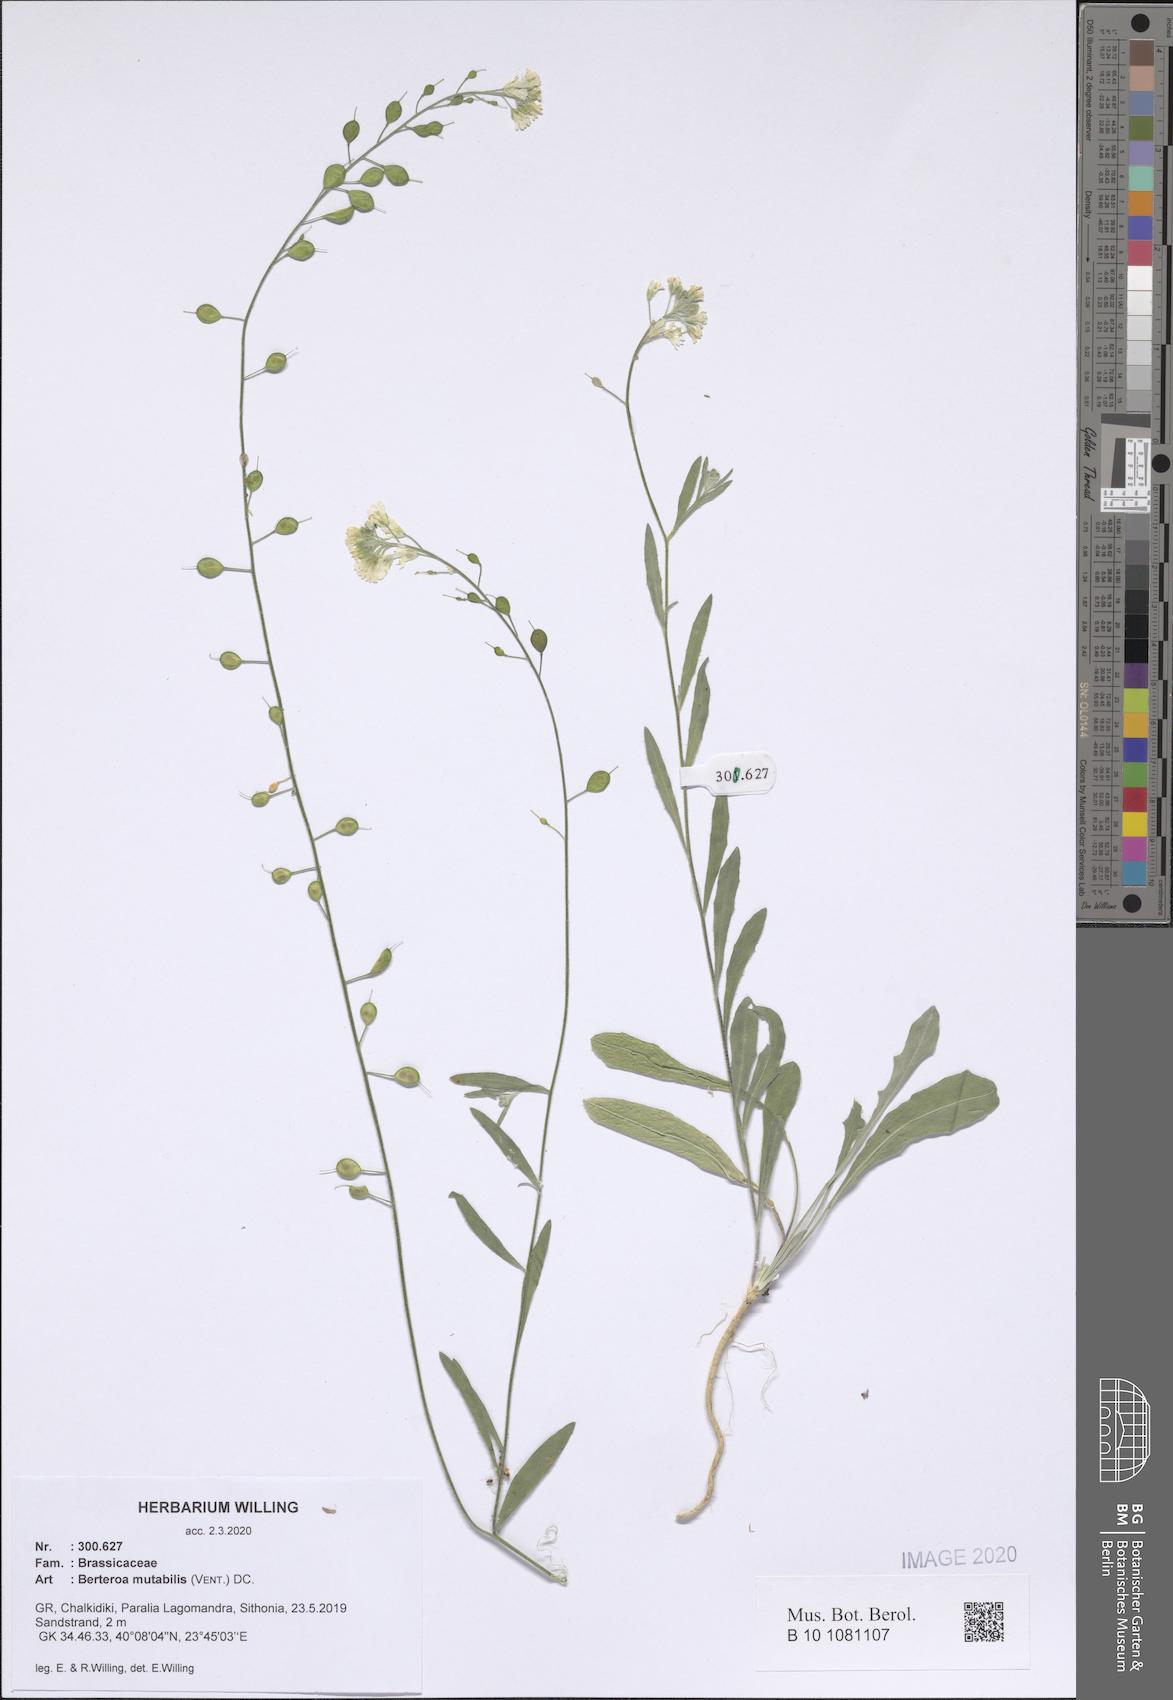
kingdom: Plantae
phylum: Tracheophyta
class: Magnoliopsida
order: Brassicales
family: Brassicaceae
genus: Berteroa
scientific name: Berteroa mutabilis
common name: Roadside false madwort
